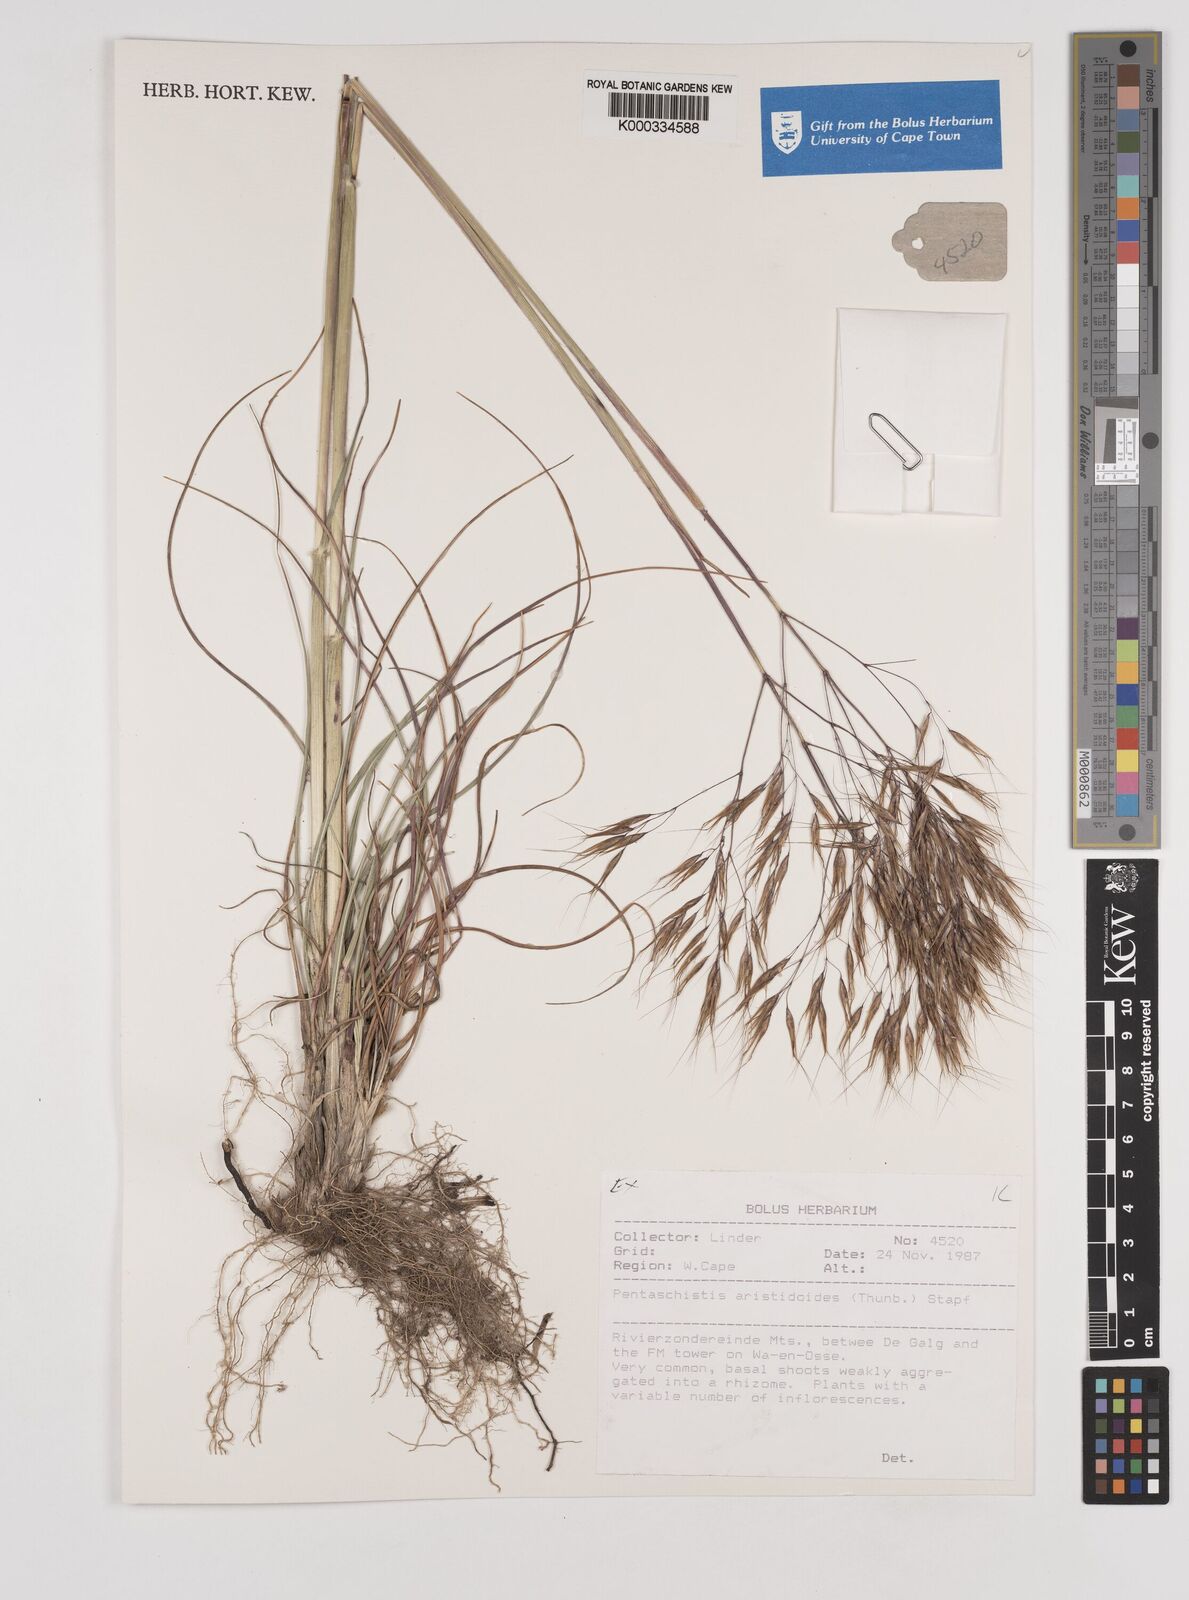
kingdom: Plantae
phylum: Tracheophyta
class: Liliopsida
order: Poales
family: Poaceae
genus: Pentameris
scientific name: Pentameris aristidoides
